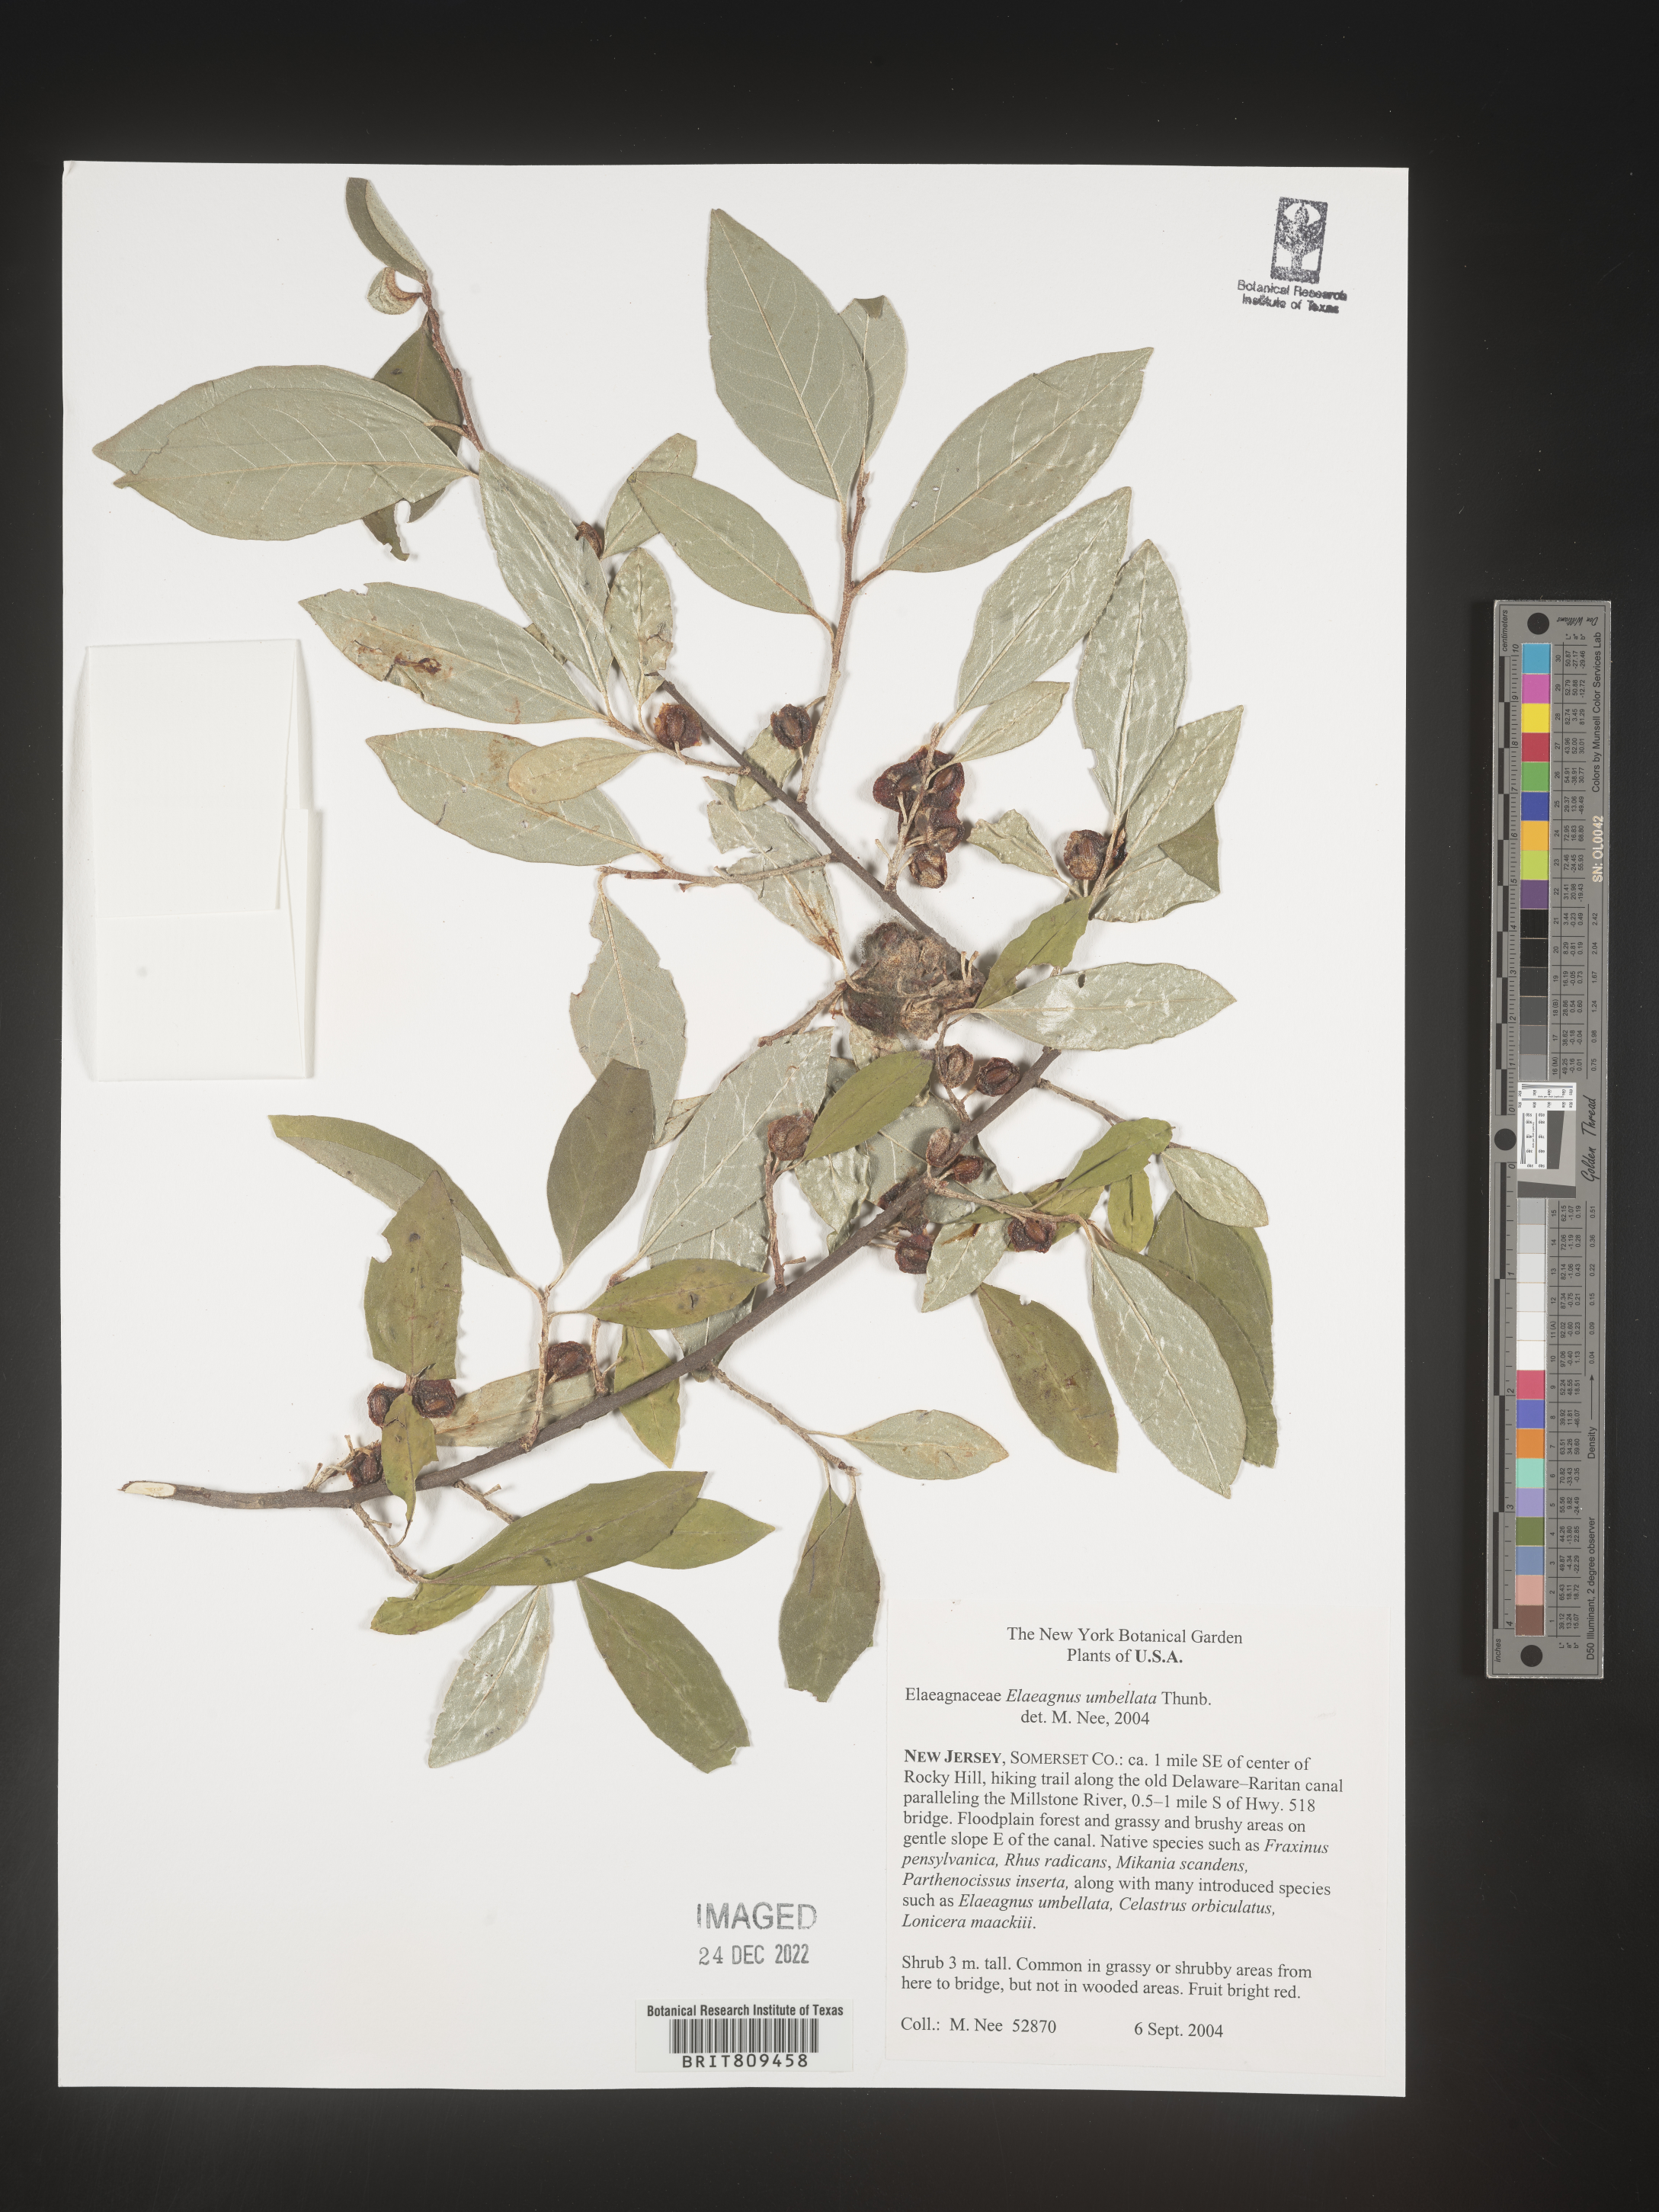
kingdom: Plantae
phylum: Tracheophyta
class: Magnoliopsida
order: Rosales
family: Elaeagnaceae
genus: Elaeagnus
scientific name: Elaeagnus
